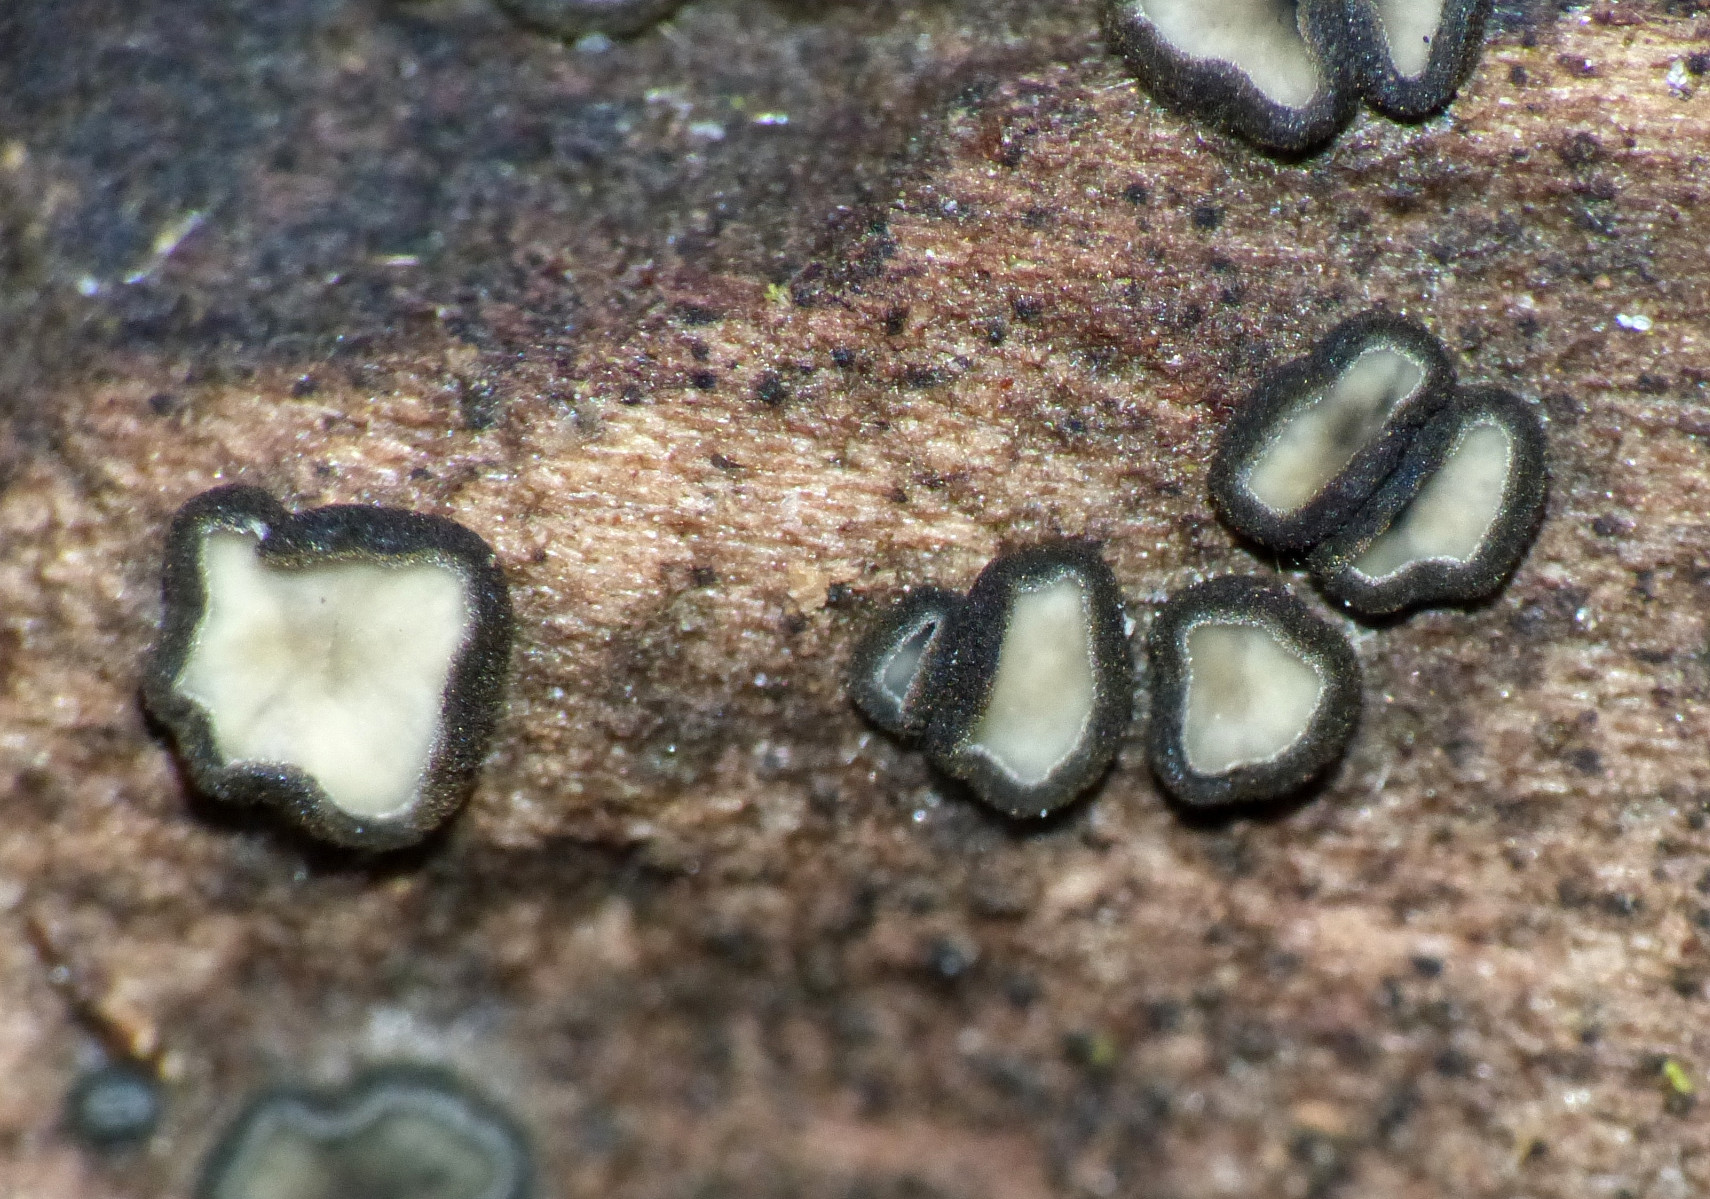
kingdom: Fungi
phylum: Ascomycota
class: Leotiomycetes
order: Helotiales
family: Mollisiaceae
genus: Mollisia
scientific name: Mollisia ligni
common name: ved-gråskive
